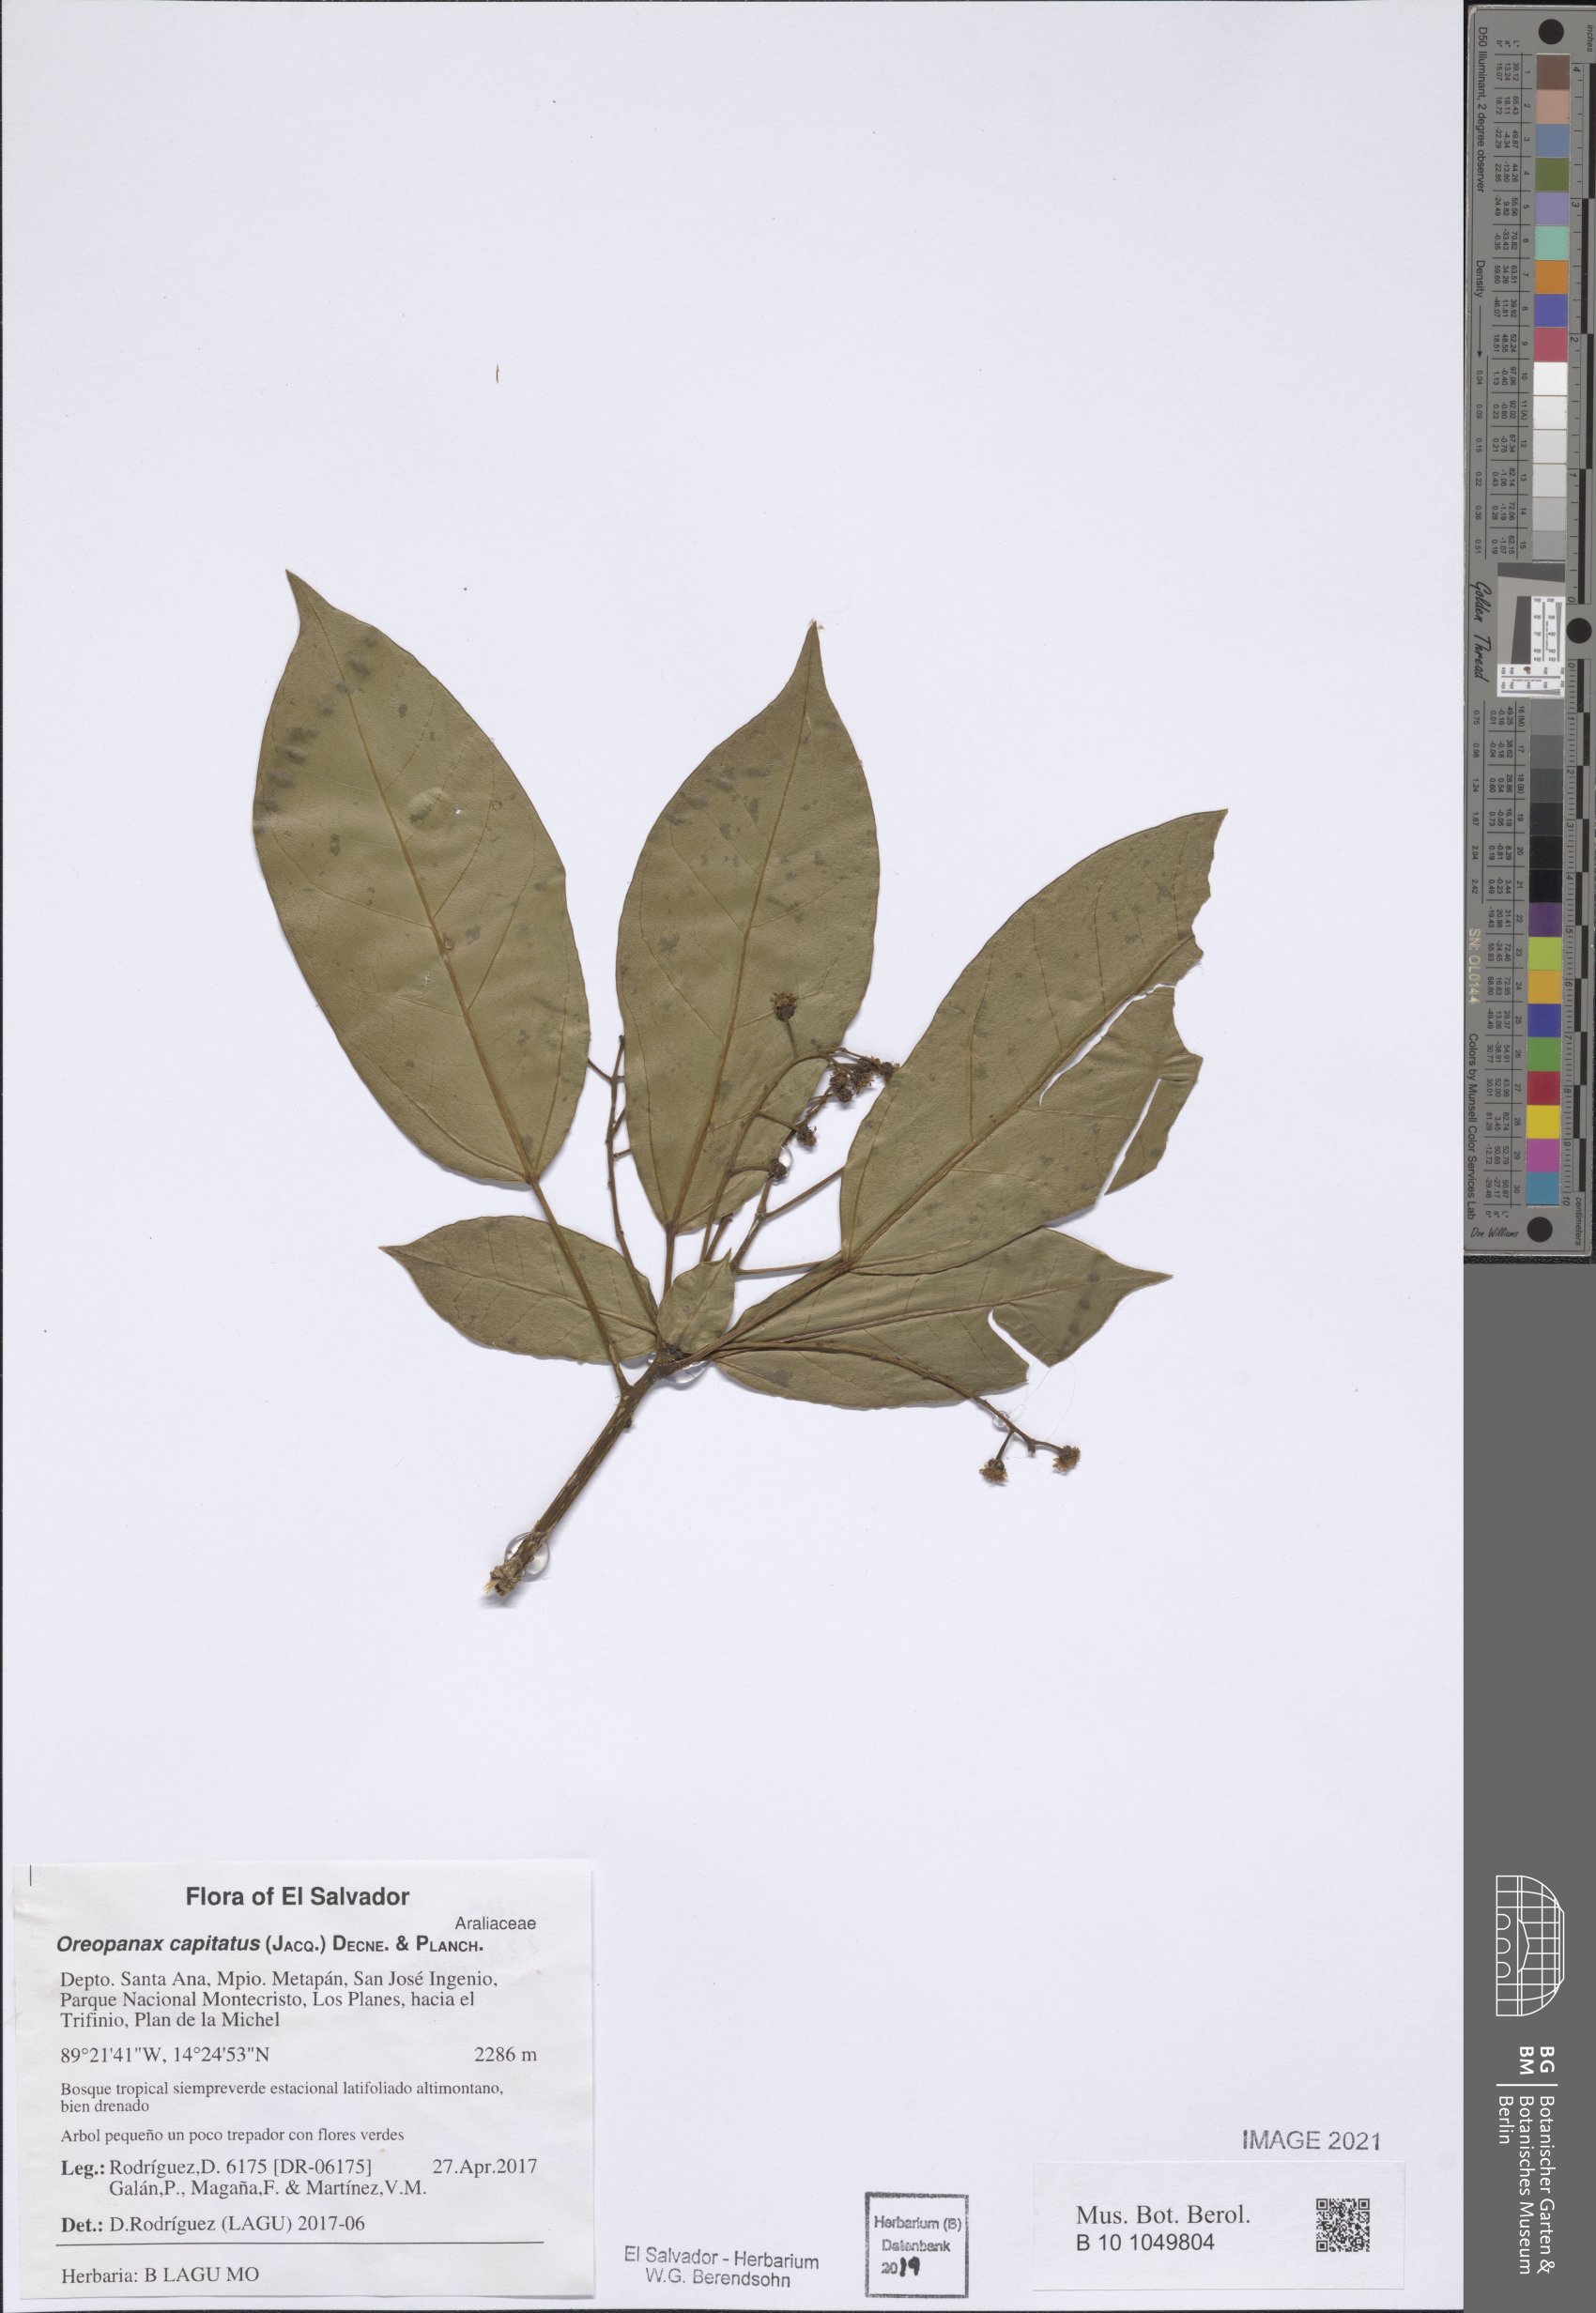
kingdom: Plantae
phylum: Tracheophyta
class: Magnoliopsida
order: Apiales
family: Araliaceae
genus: Oreopanax
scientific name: Oreopanax capitatus
